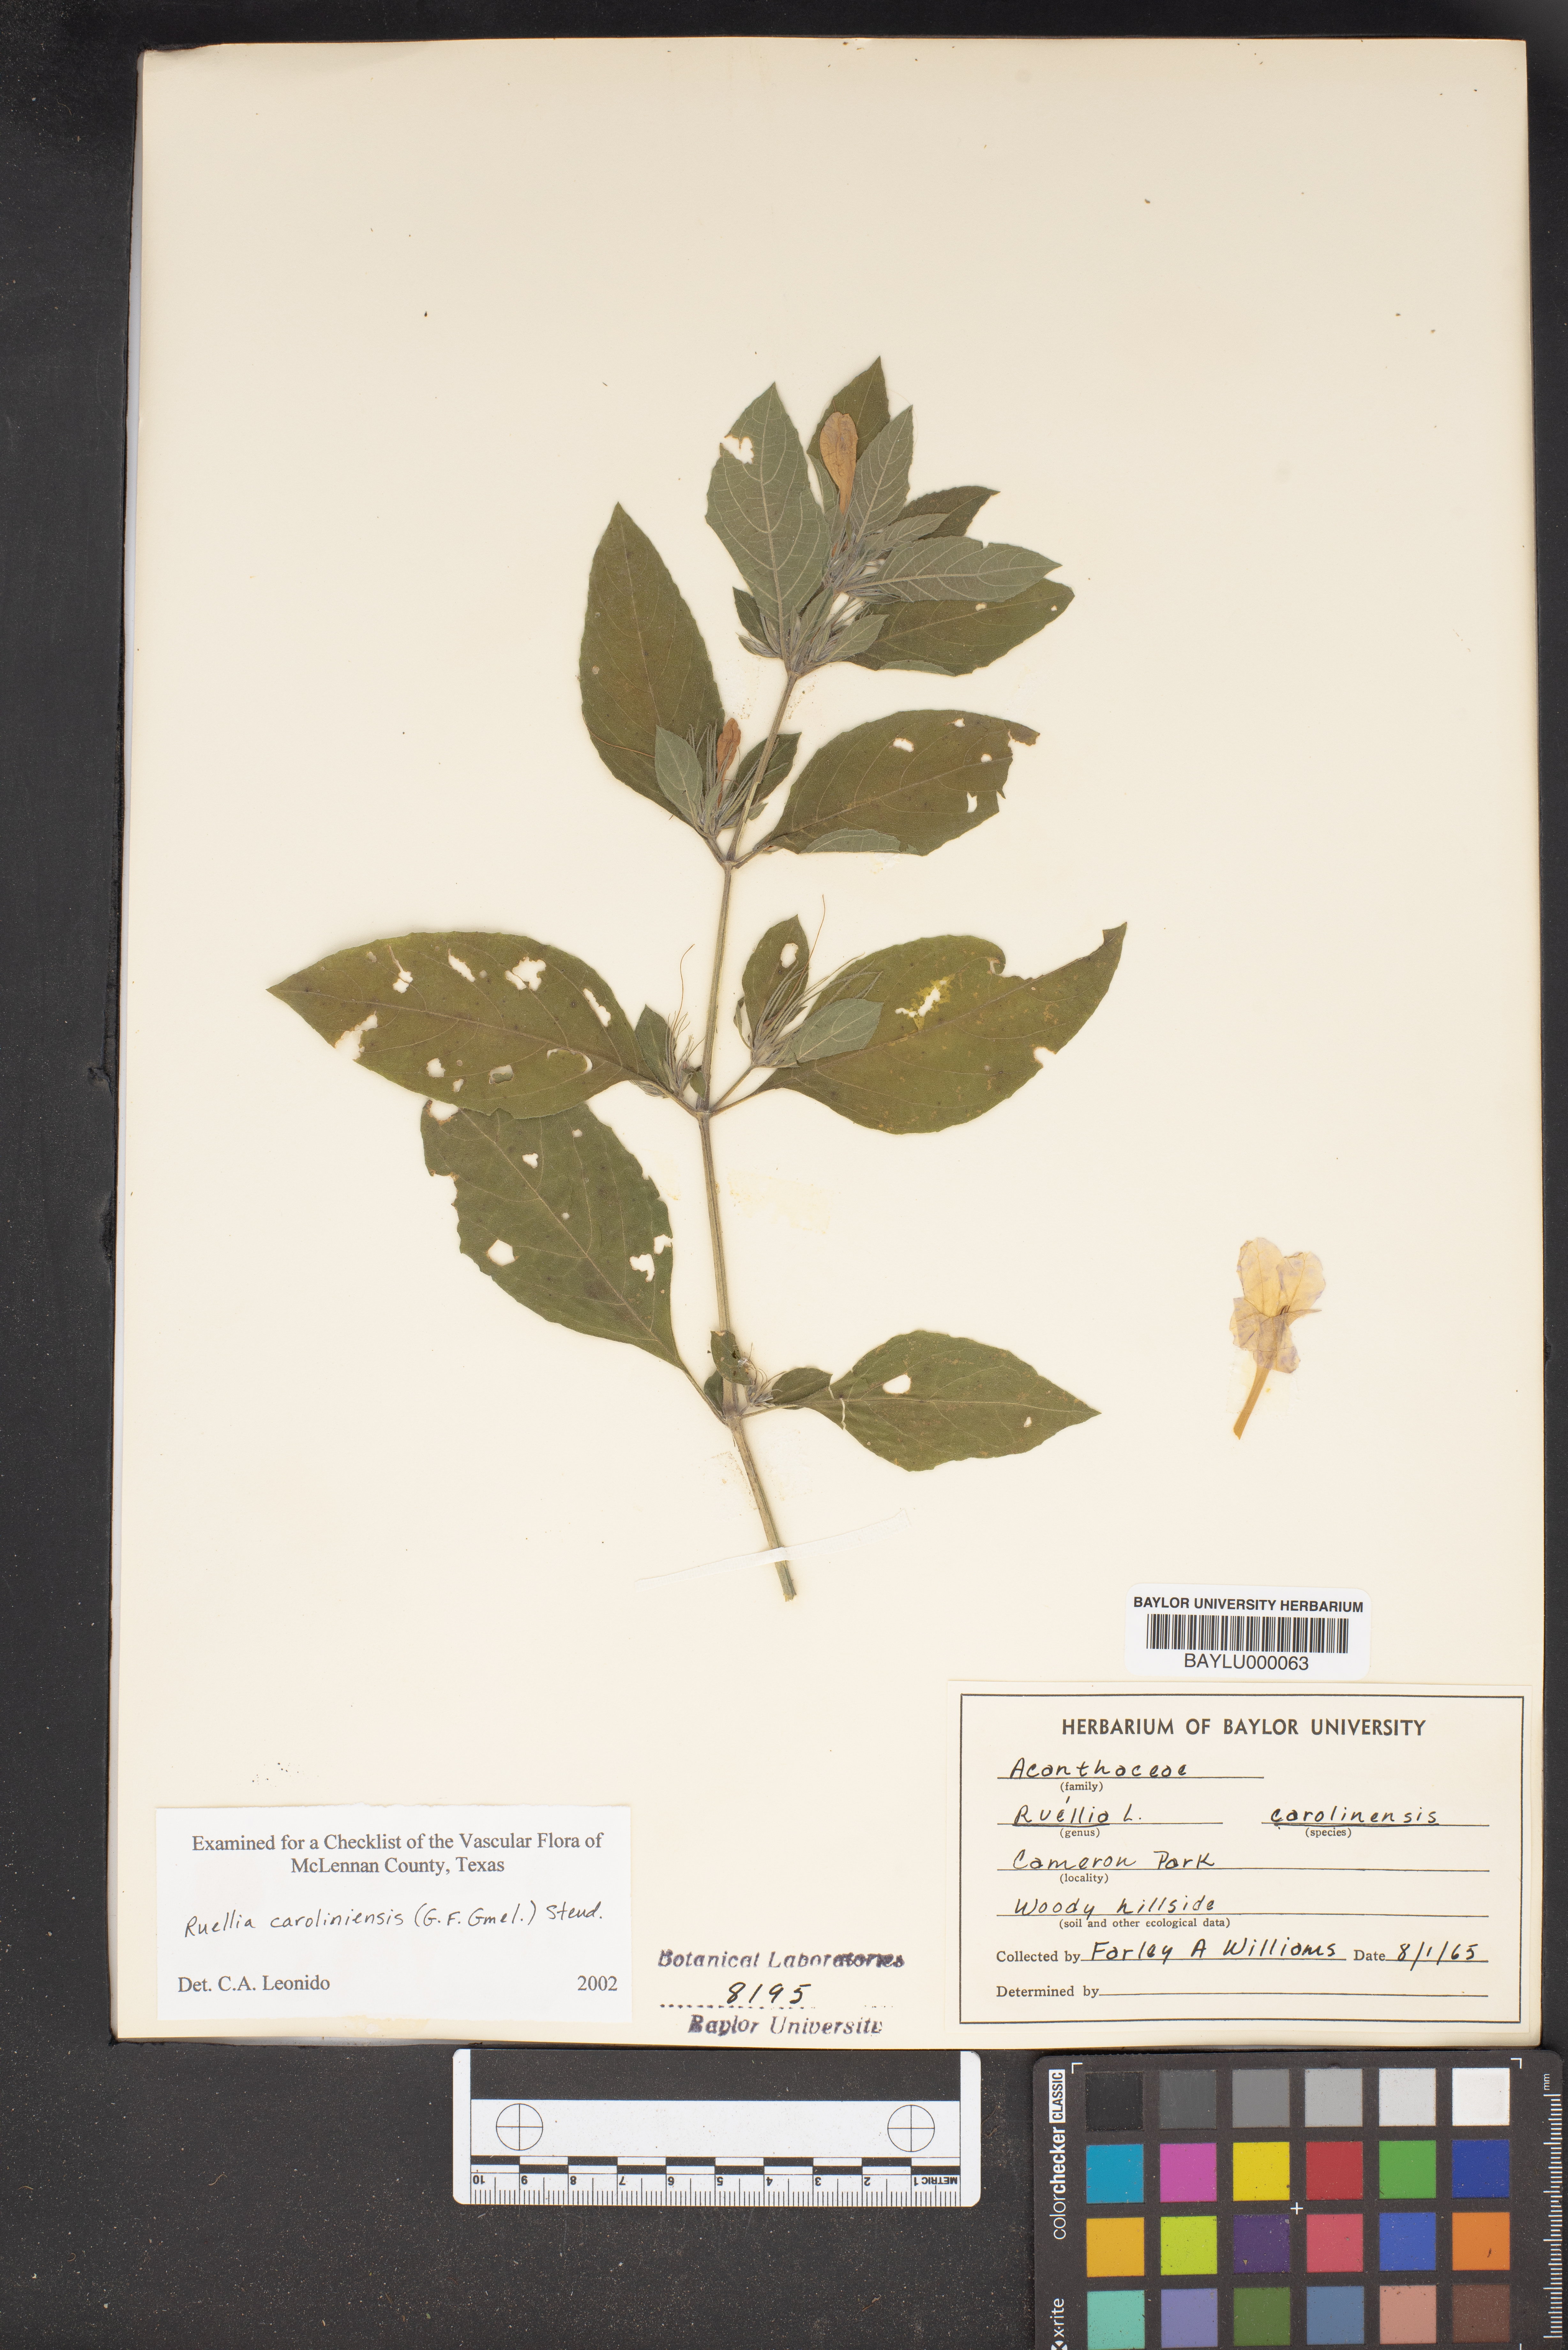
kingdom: Plantae
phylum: Tracheophyta
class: Magnoliopsida
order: Lamiales
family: Acanthaceae
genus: Ruellia
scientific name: Ruellia caroliniensis
